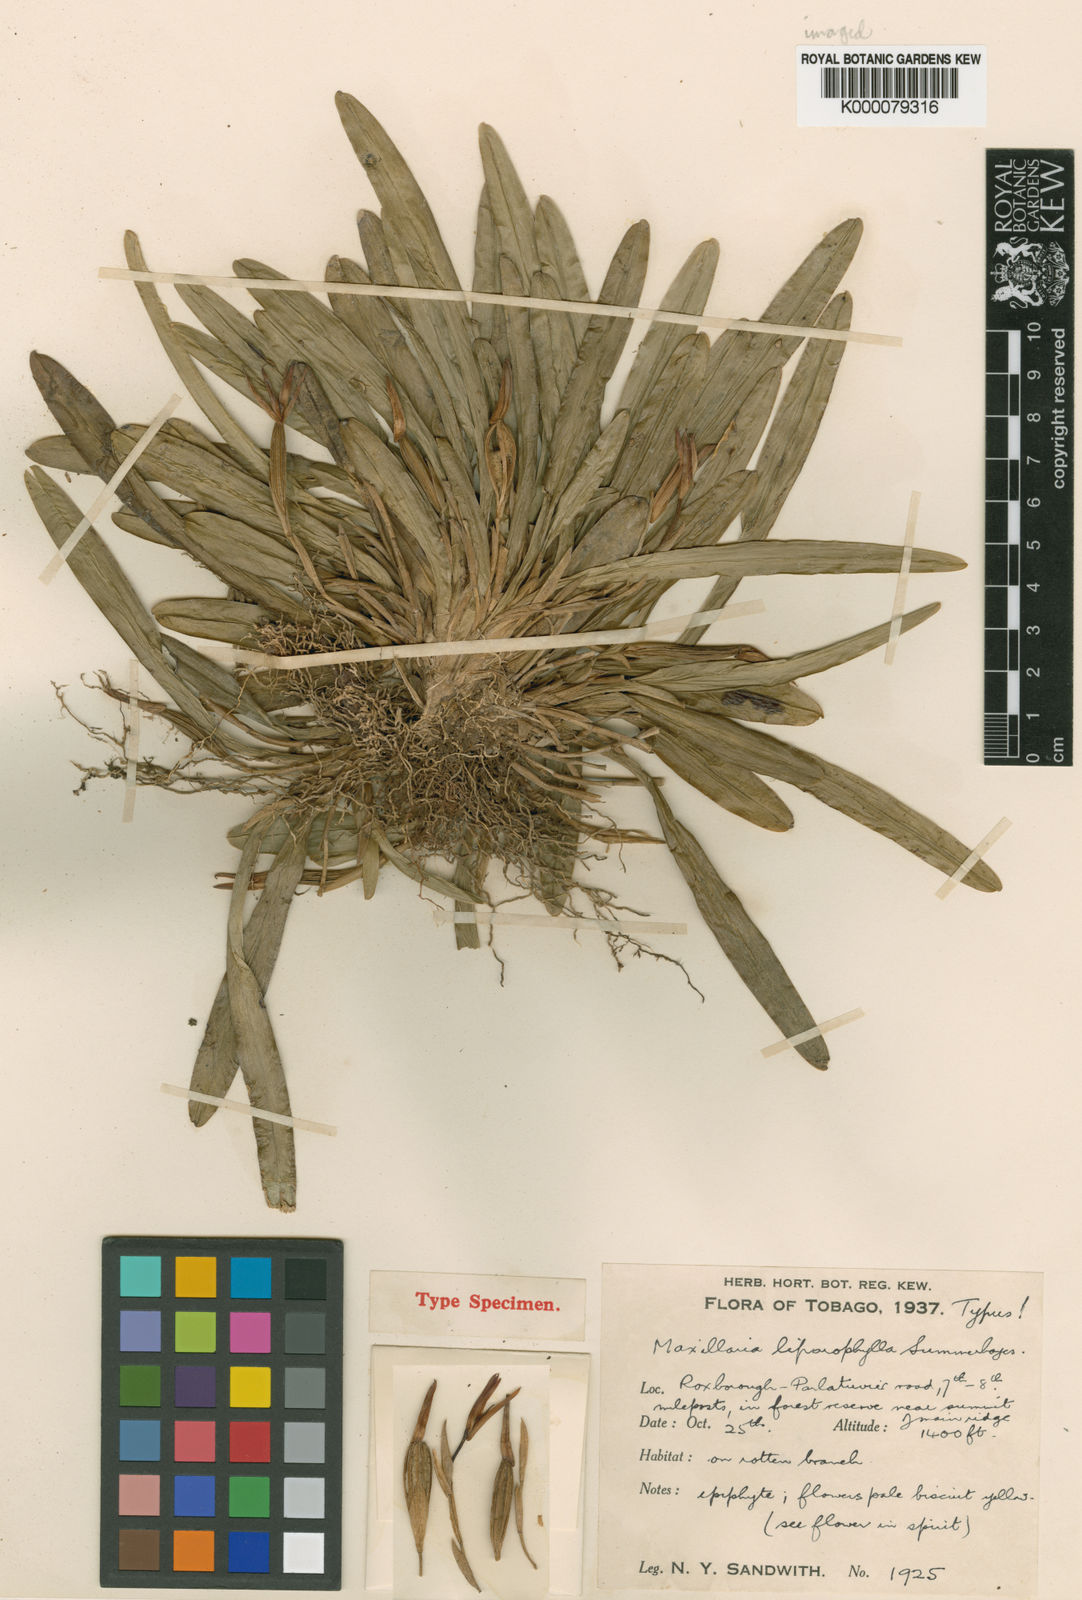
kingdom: Plantae
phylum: Tracheophyta
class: Liliopsida
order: Asparagales
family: Orchidaceae
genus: Maxillaria
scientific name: Maxillaria xylobiiflora
